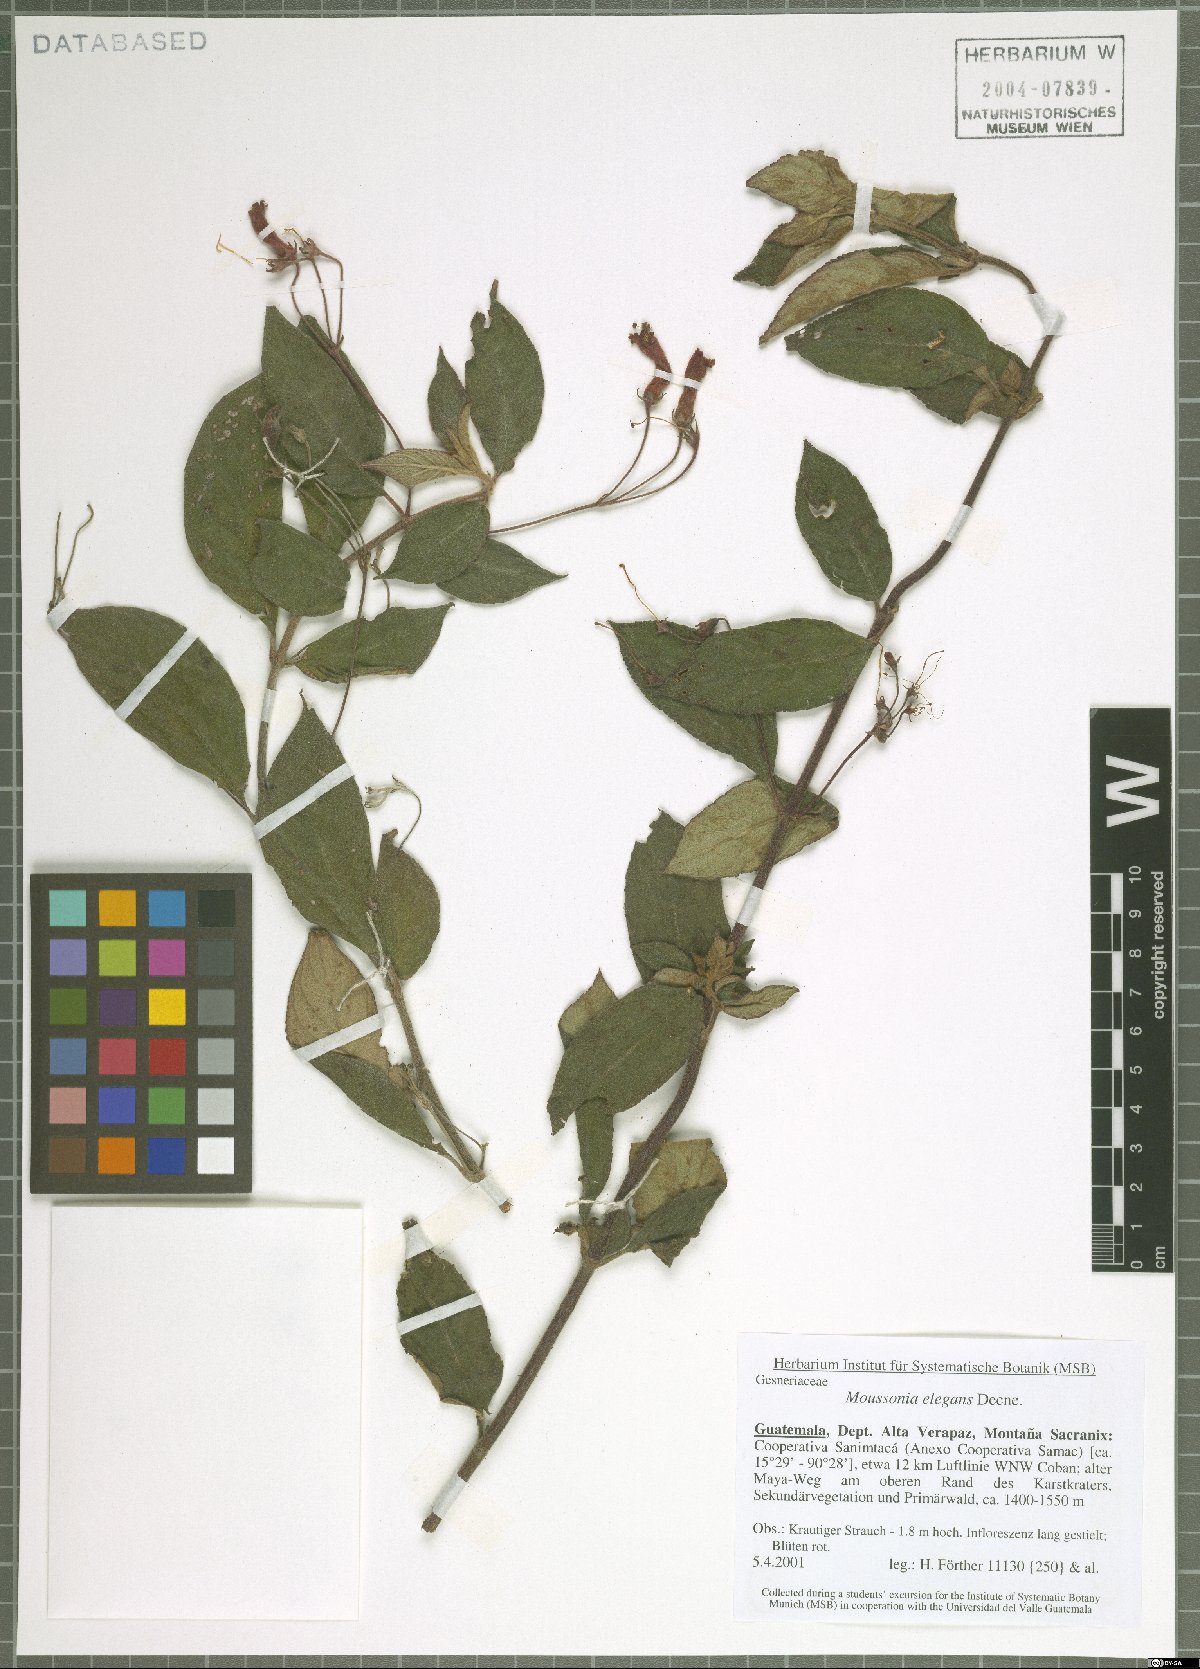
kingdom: Plantae
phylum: Tracheophyta
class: Magnoliopsida
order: Lamiales
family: Gesneriaceae
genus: Moussonia
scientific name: Moussonia elegans
